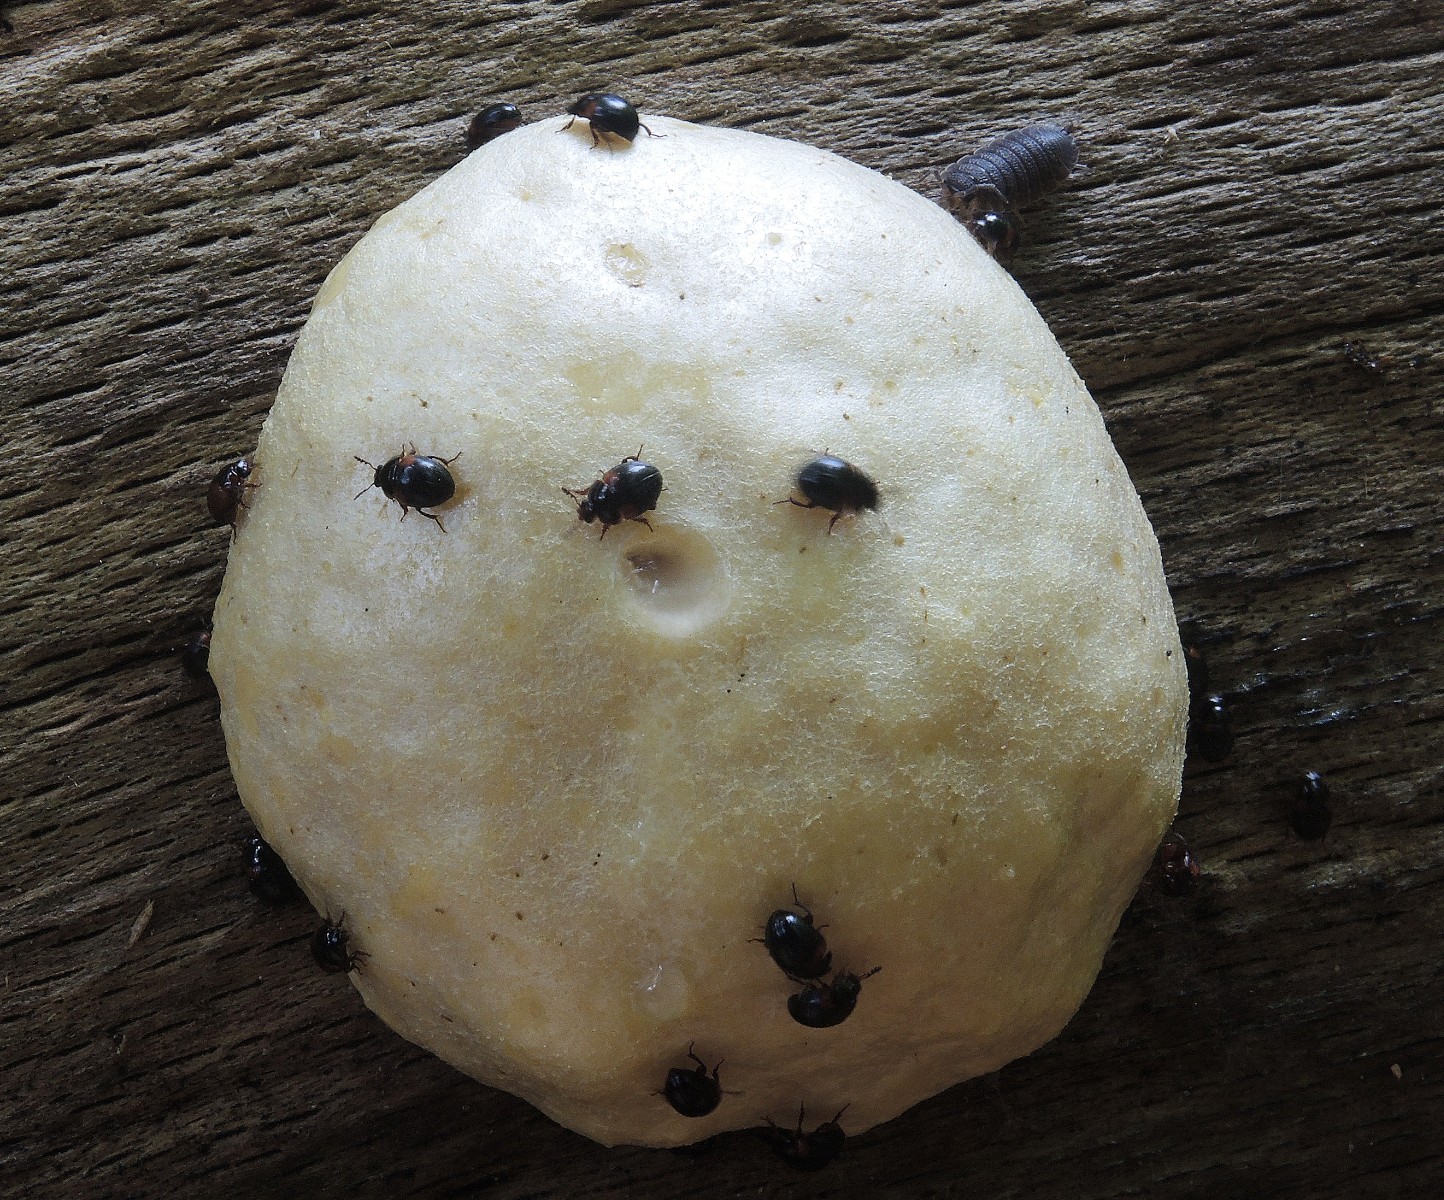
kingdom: Protozoa
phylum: Mycetozoa
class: Myxomycetes
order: Cribrariales
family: Tubiferaceae
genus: Reticularia
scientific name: Reticularia lycoperdon
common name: skinnende støvpude
